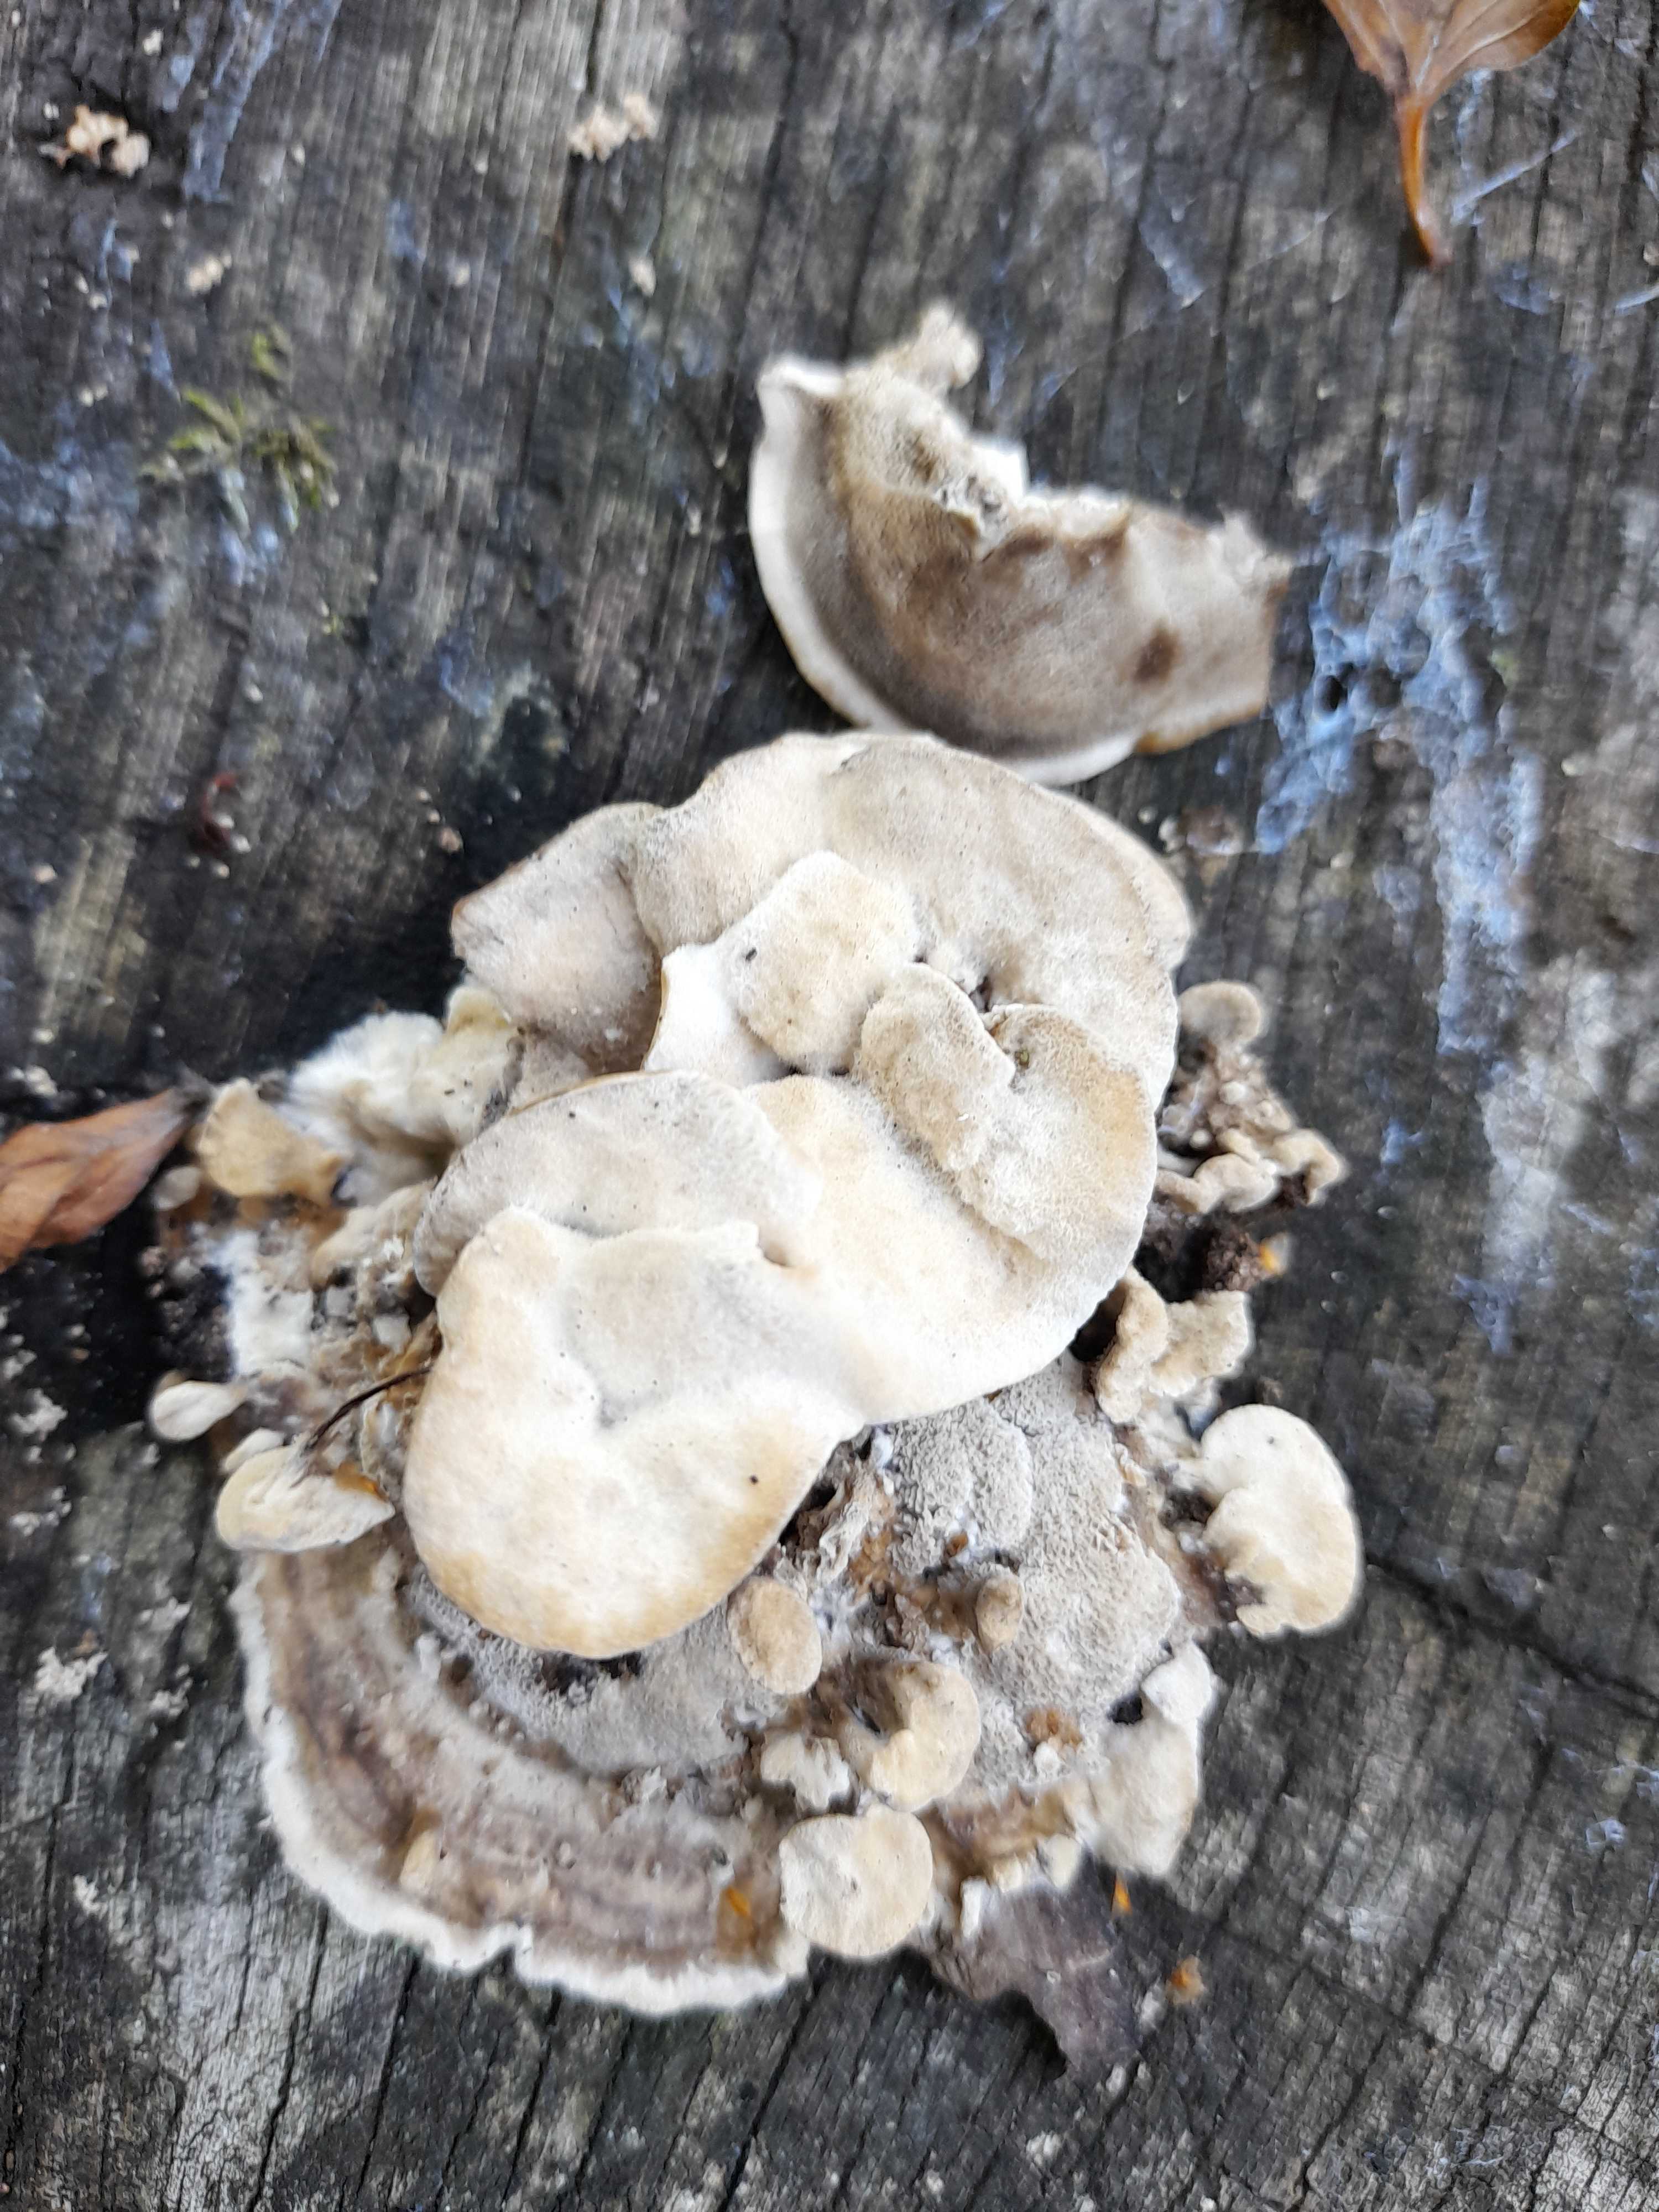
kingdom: Fungi
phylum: Basidiomycota
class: Agaricomycetes
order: Polyporales
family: Phanerochaetaceae
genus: Bjerkandera
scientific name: Bjerkandera adusta
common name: sveden sodporesvamp
